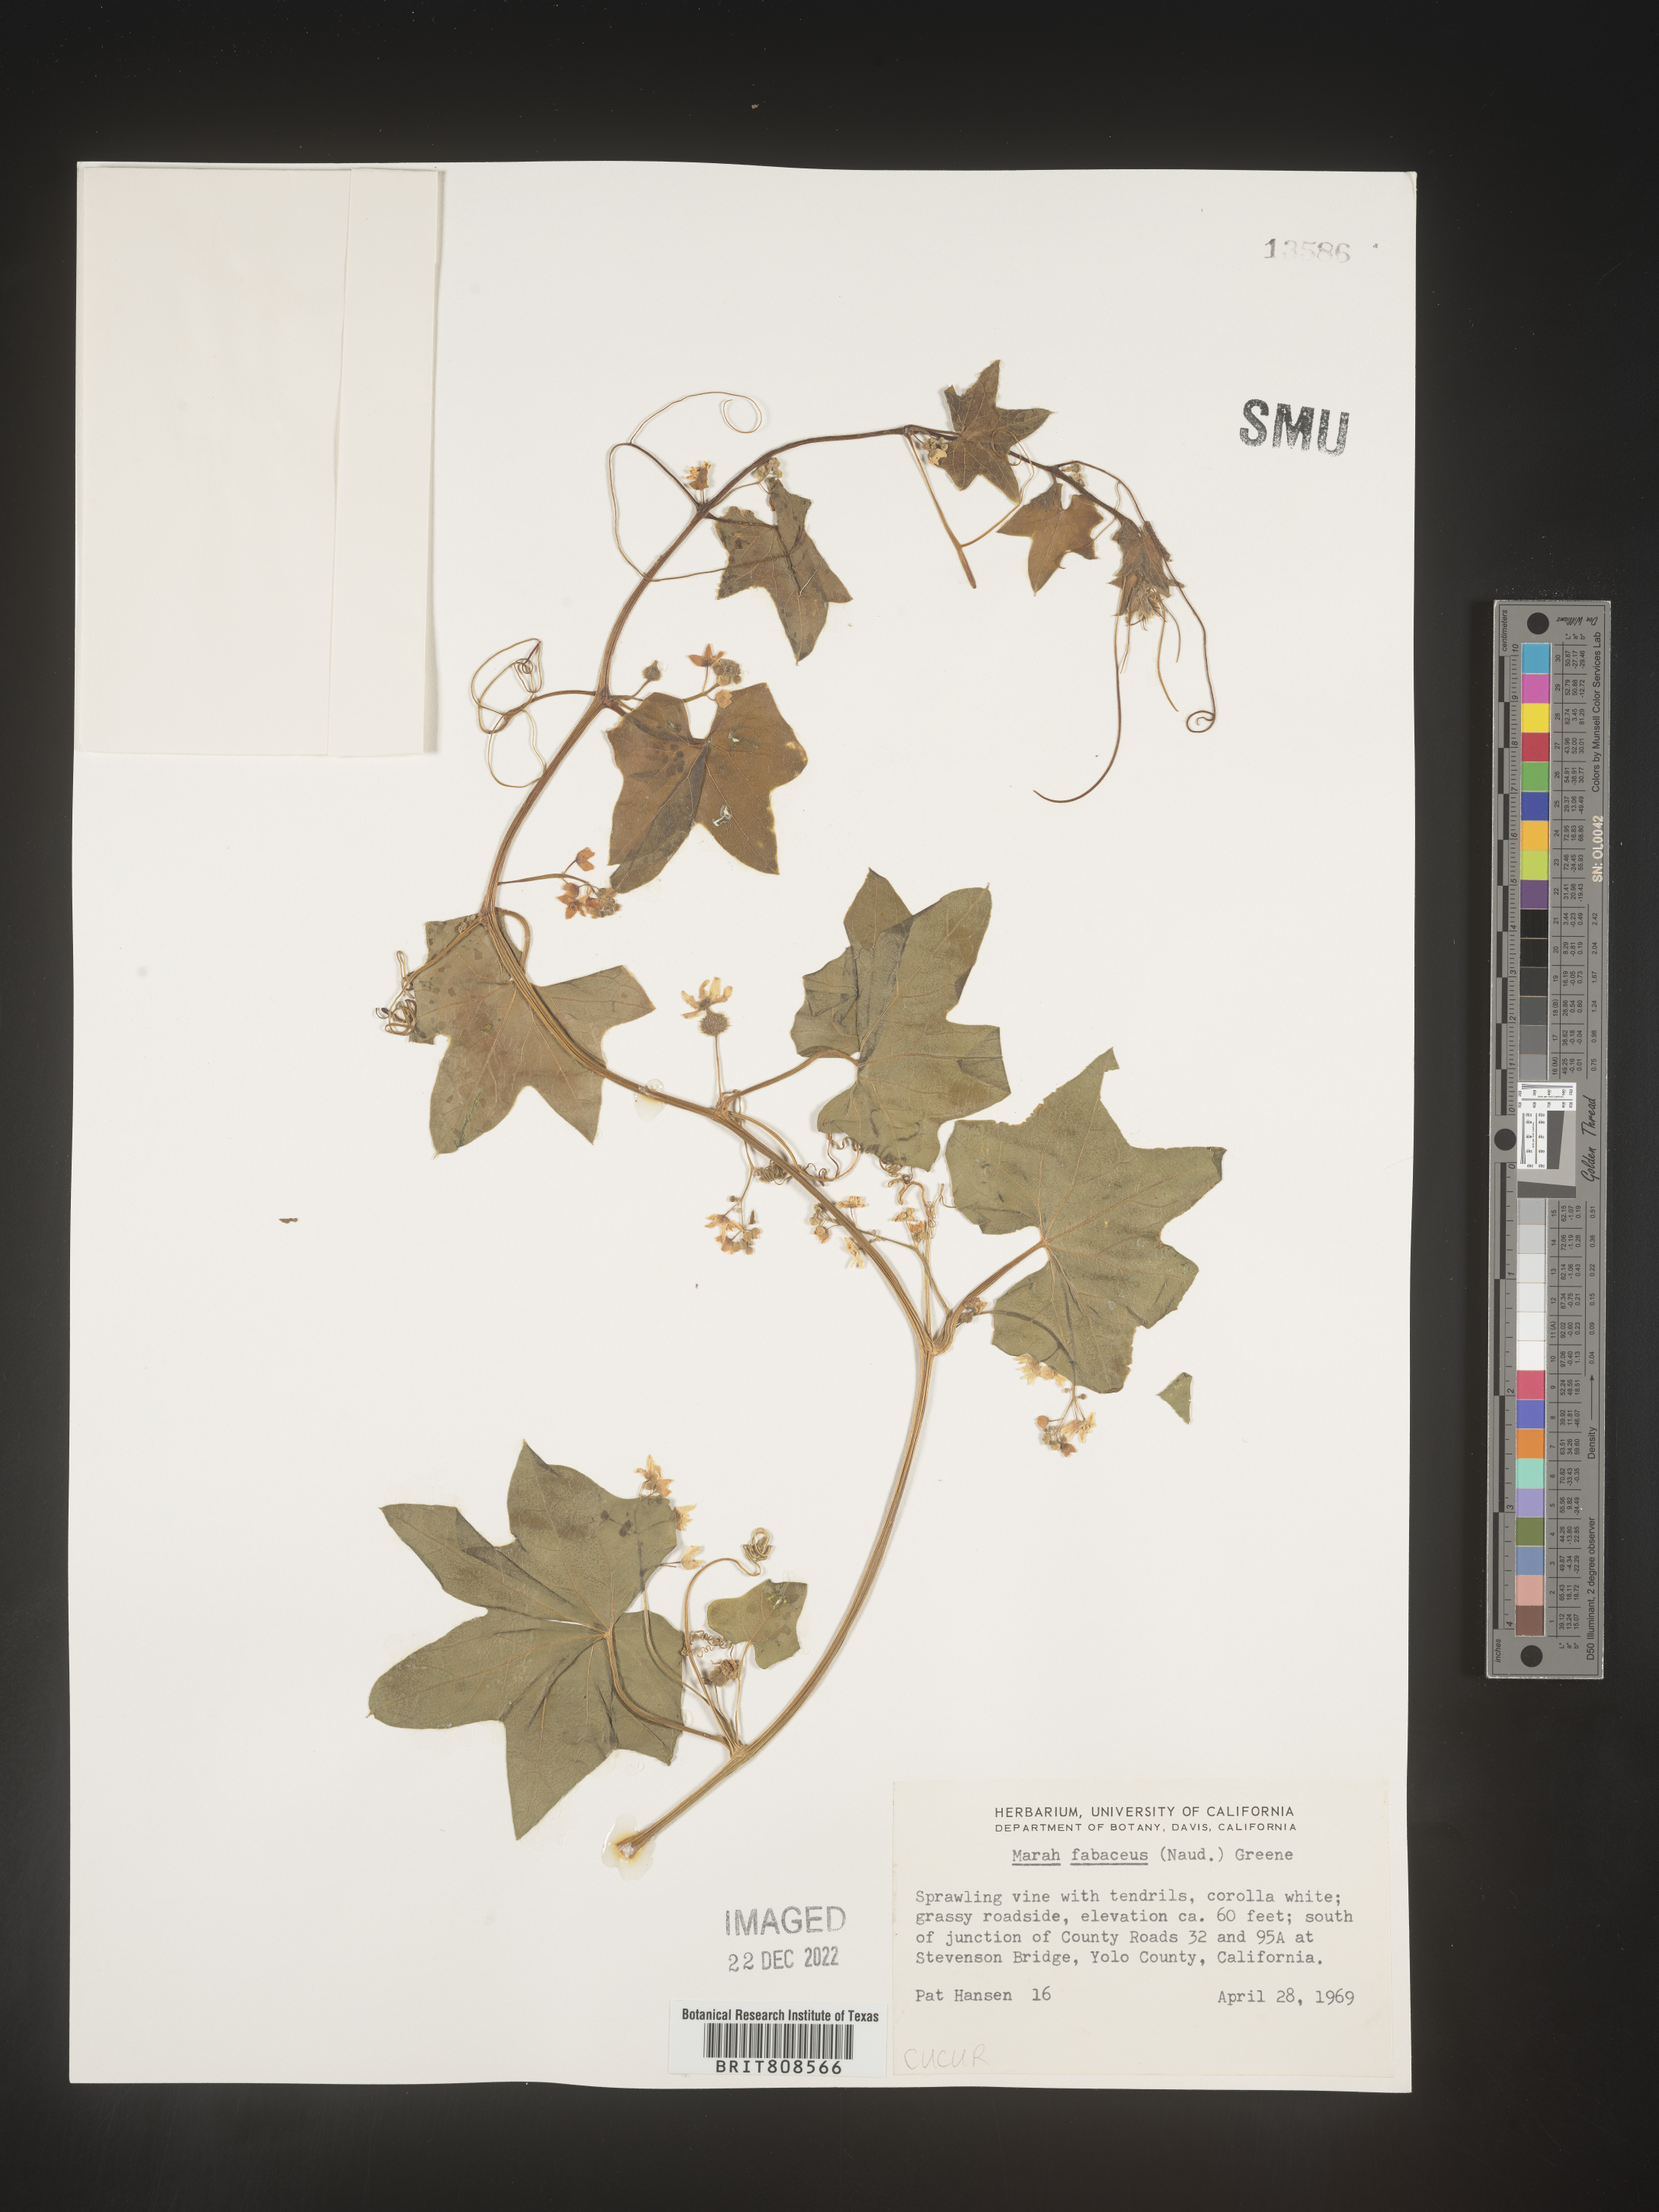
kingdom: Plantae
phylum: Tracheophyta
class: Magnoliopsida
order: Cucurbitales
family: Cucurbitaceae
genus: Marah
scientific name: Marah
